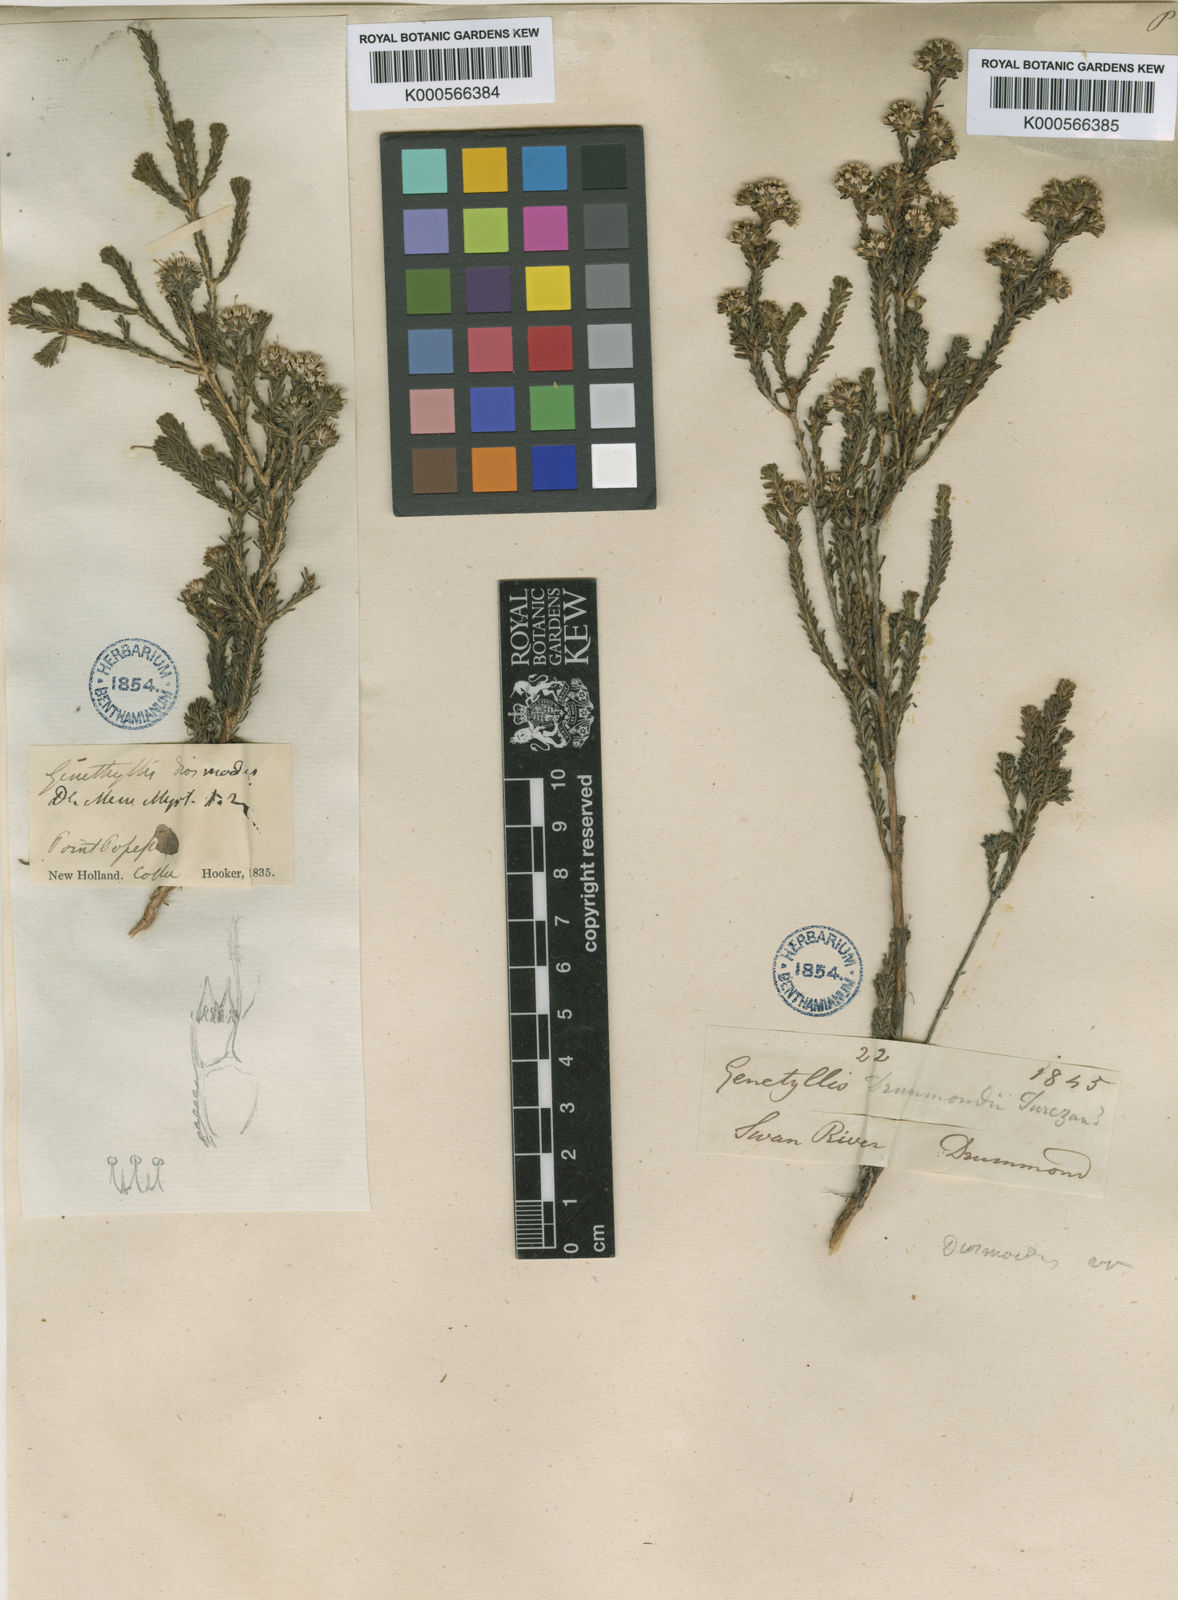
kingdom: Plantae
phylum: Tracheophyta
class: Magnoliopsida
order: Myrtales
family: Myrtaceae
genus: Darwinia
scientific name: Darwinia diosmoides
